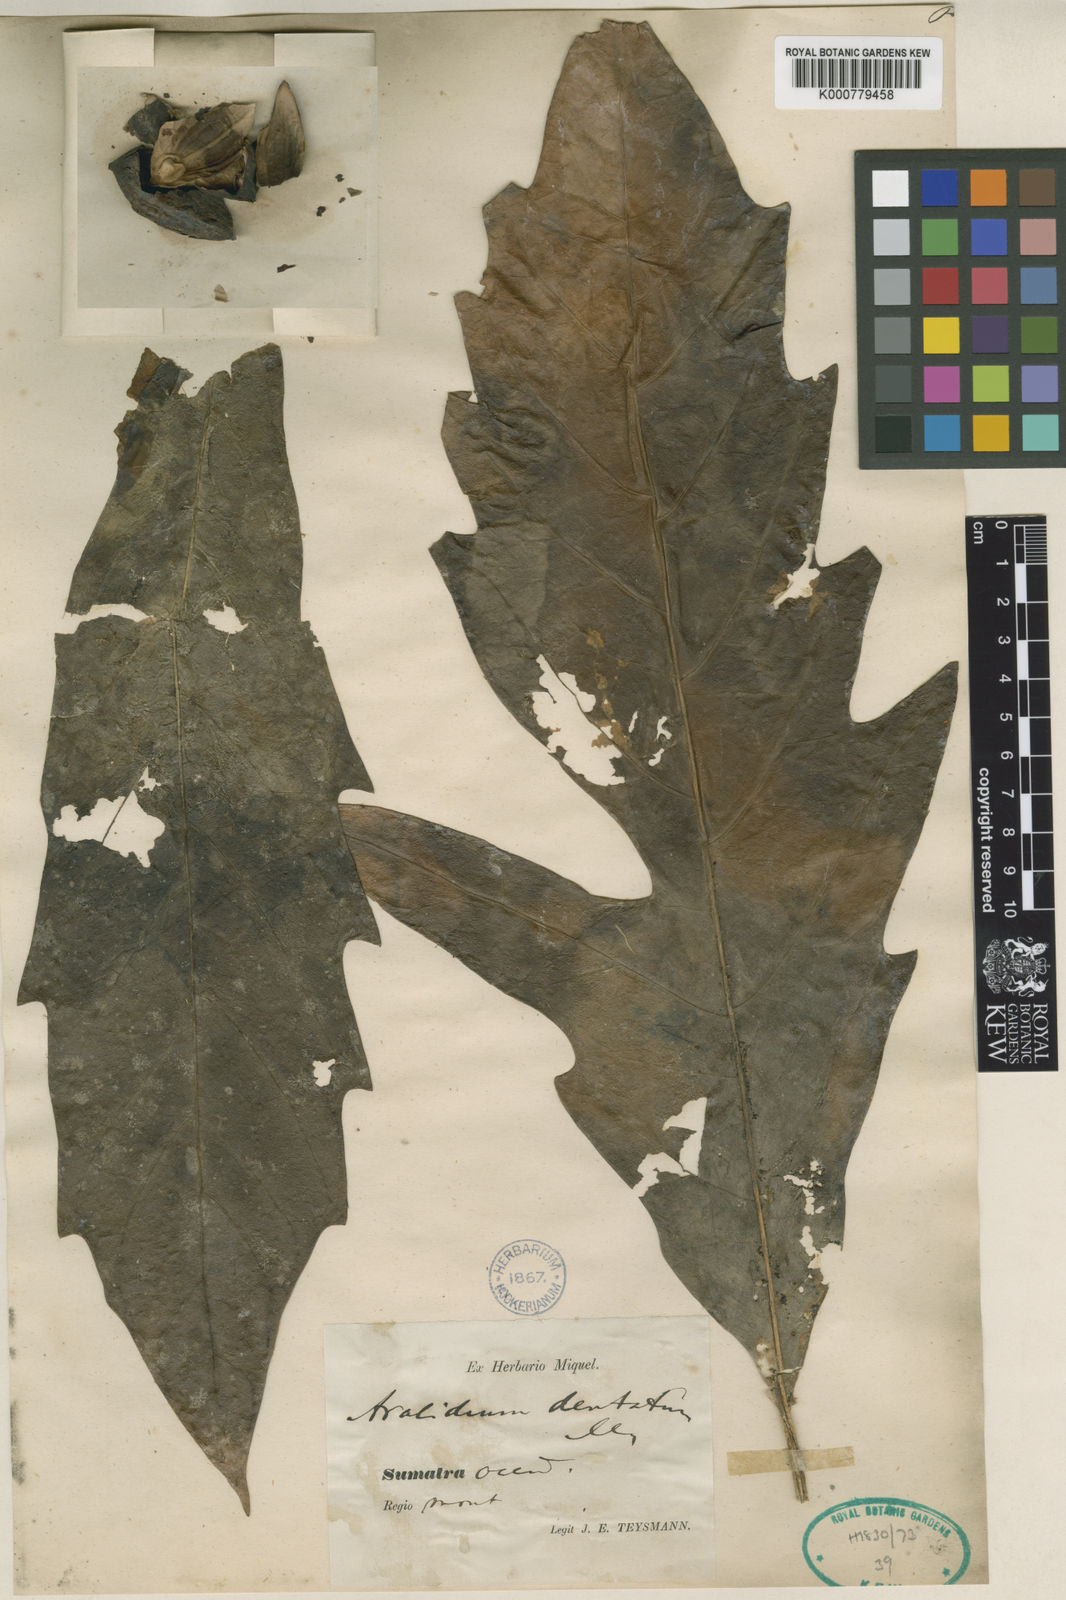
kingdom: Plantae
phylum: Tracheophyta
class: Magnoliopsida
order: Apiales
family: Torricelliaceae
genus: Aralidium
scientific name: Aralidium pinnatifidum
